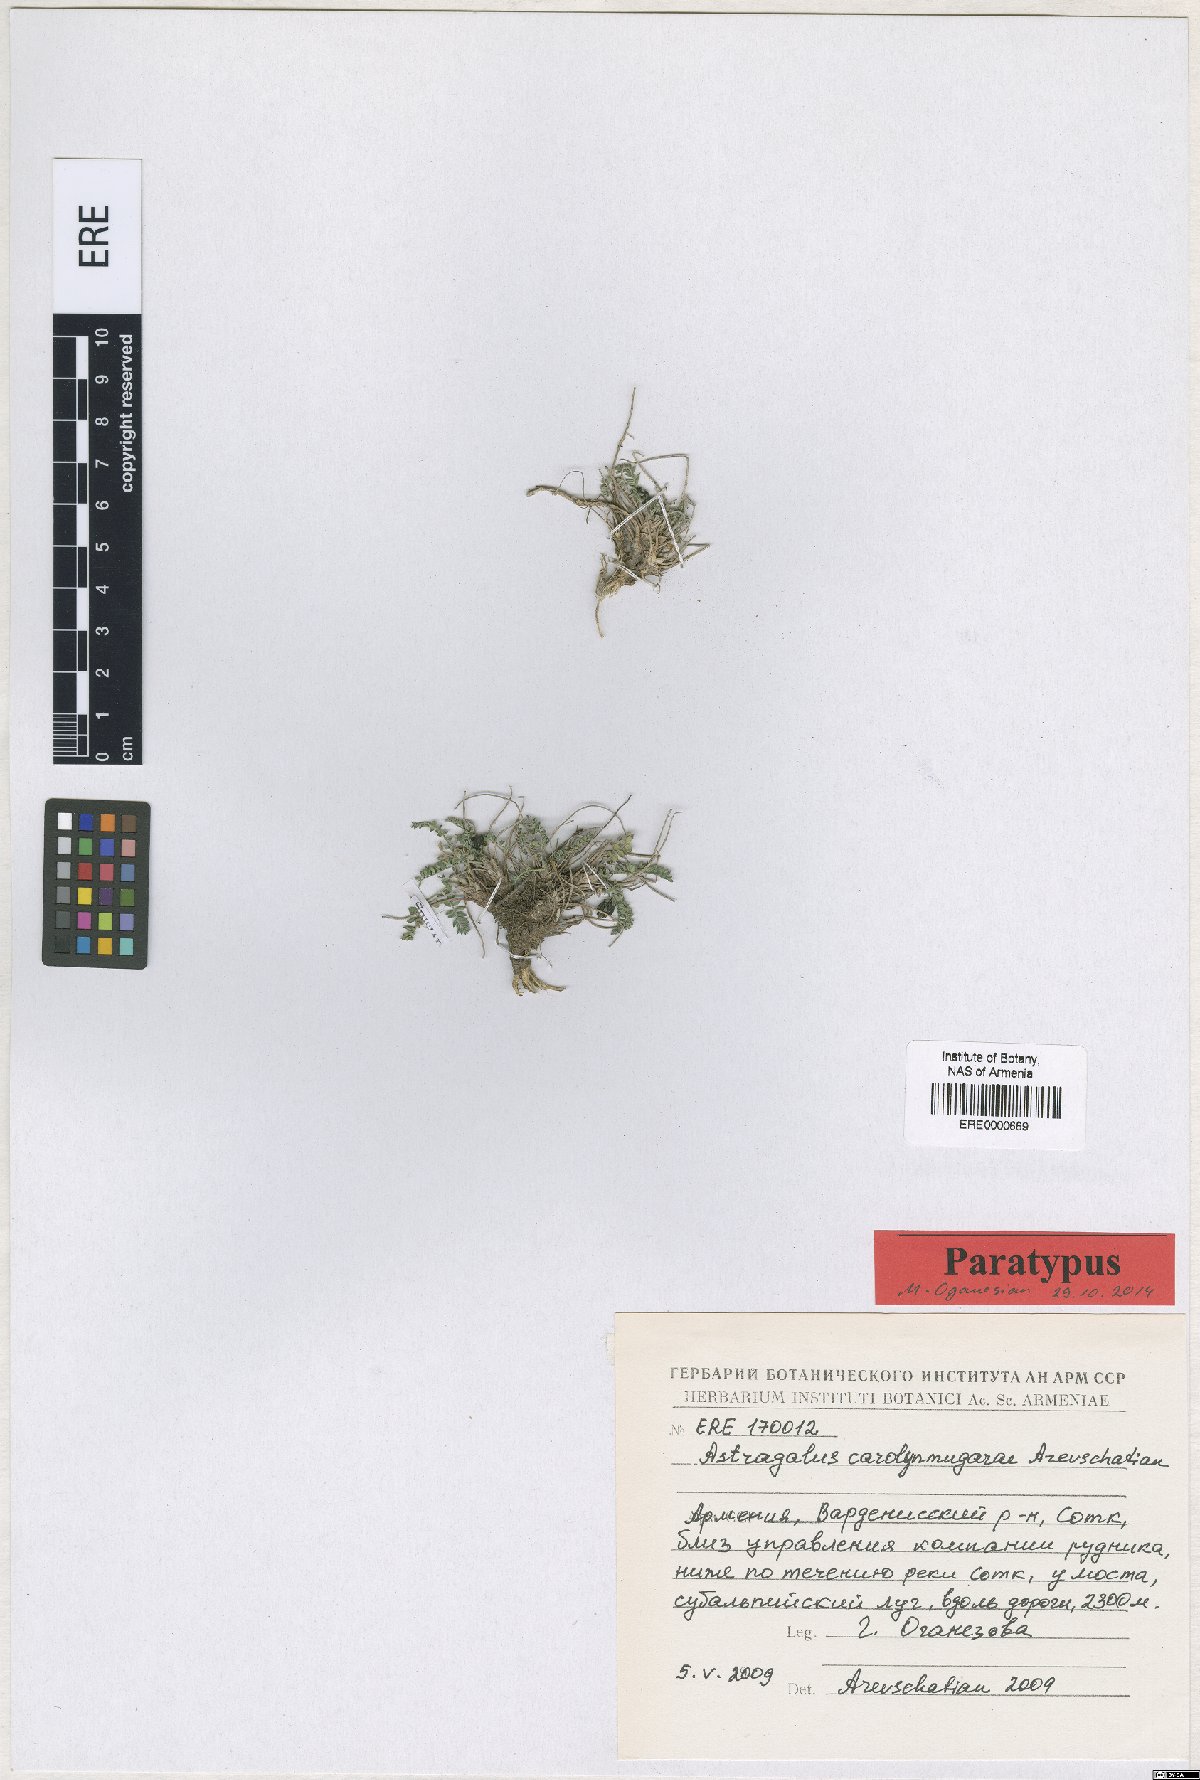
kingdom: Plantae
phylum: Tracheophyta
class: Magnoliopsida
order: Fabales
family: Fabaceae
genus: Astragalus
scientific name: Astragalus carolynmugariae
